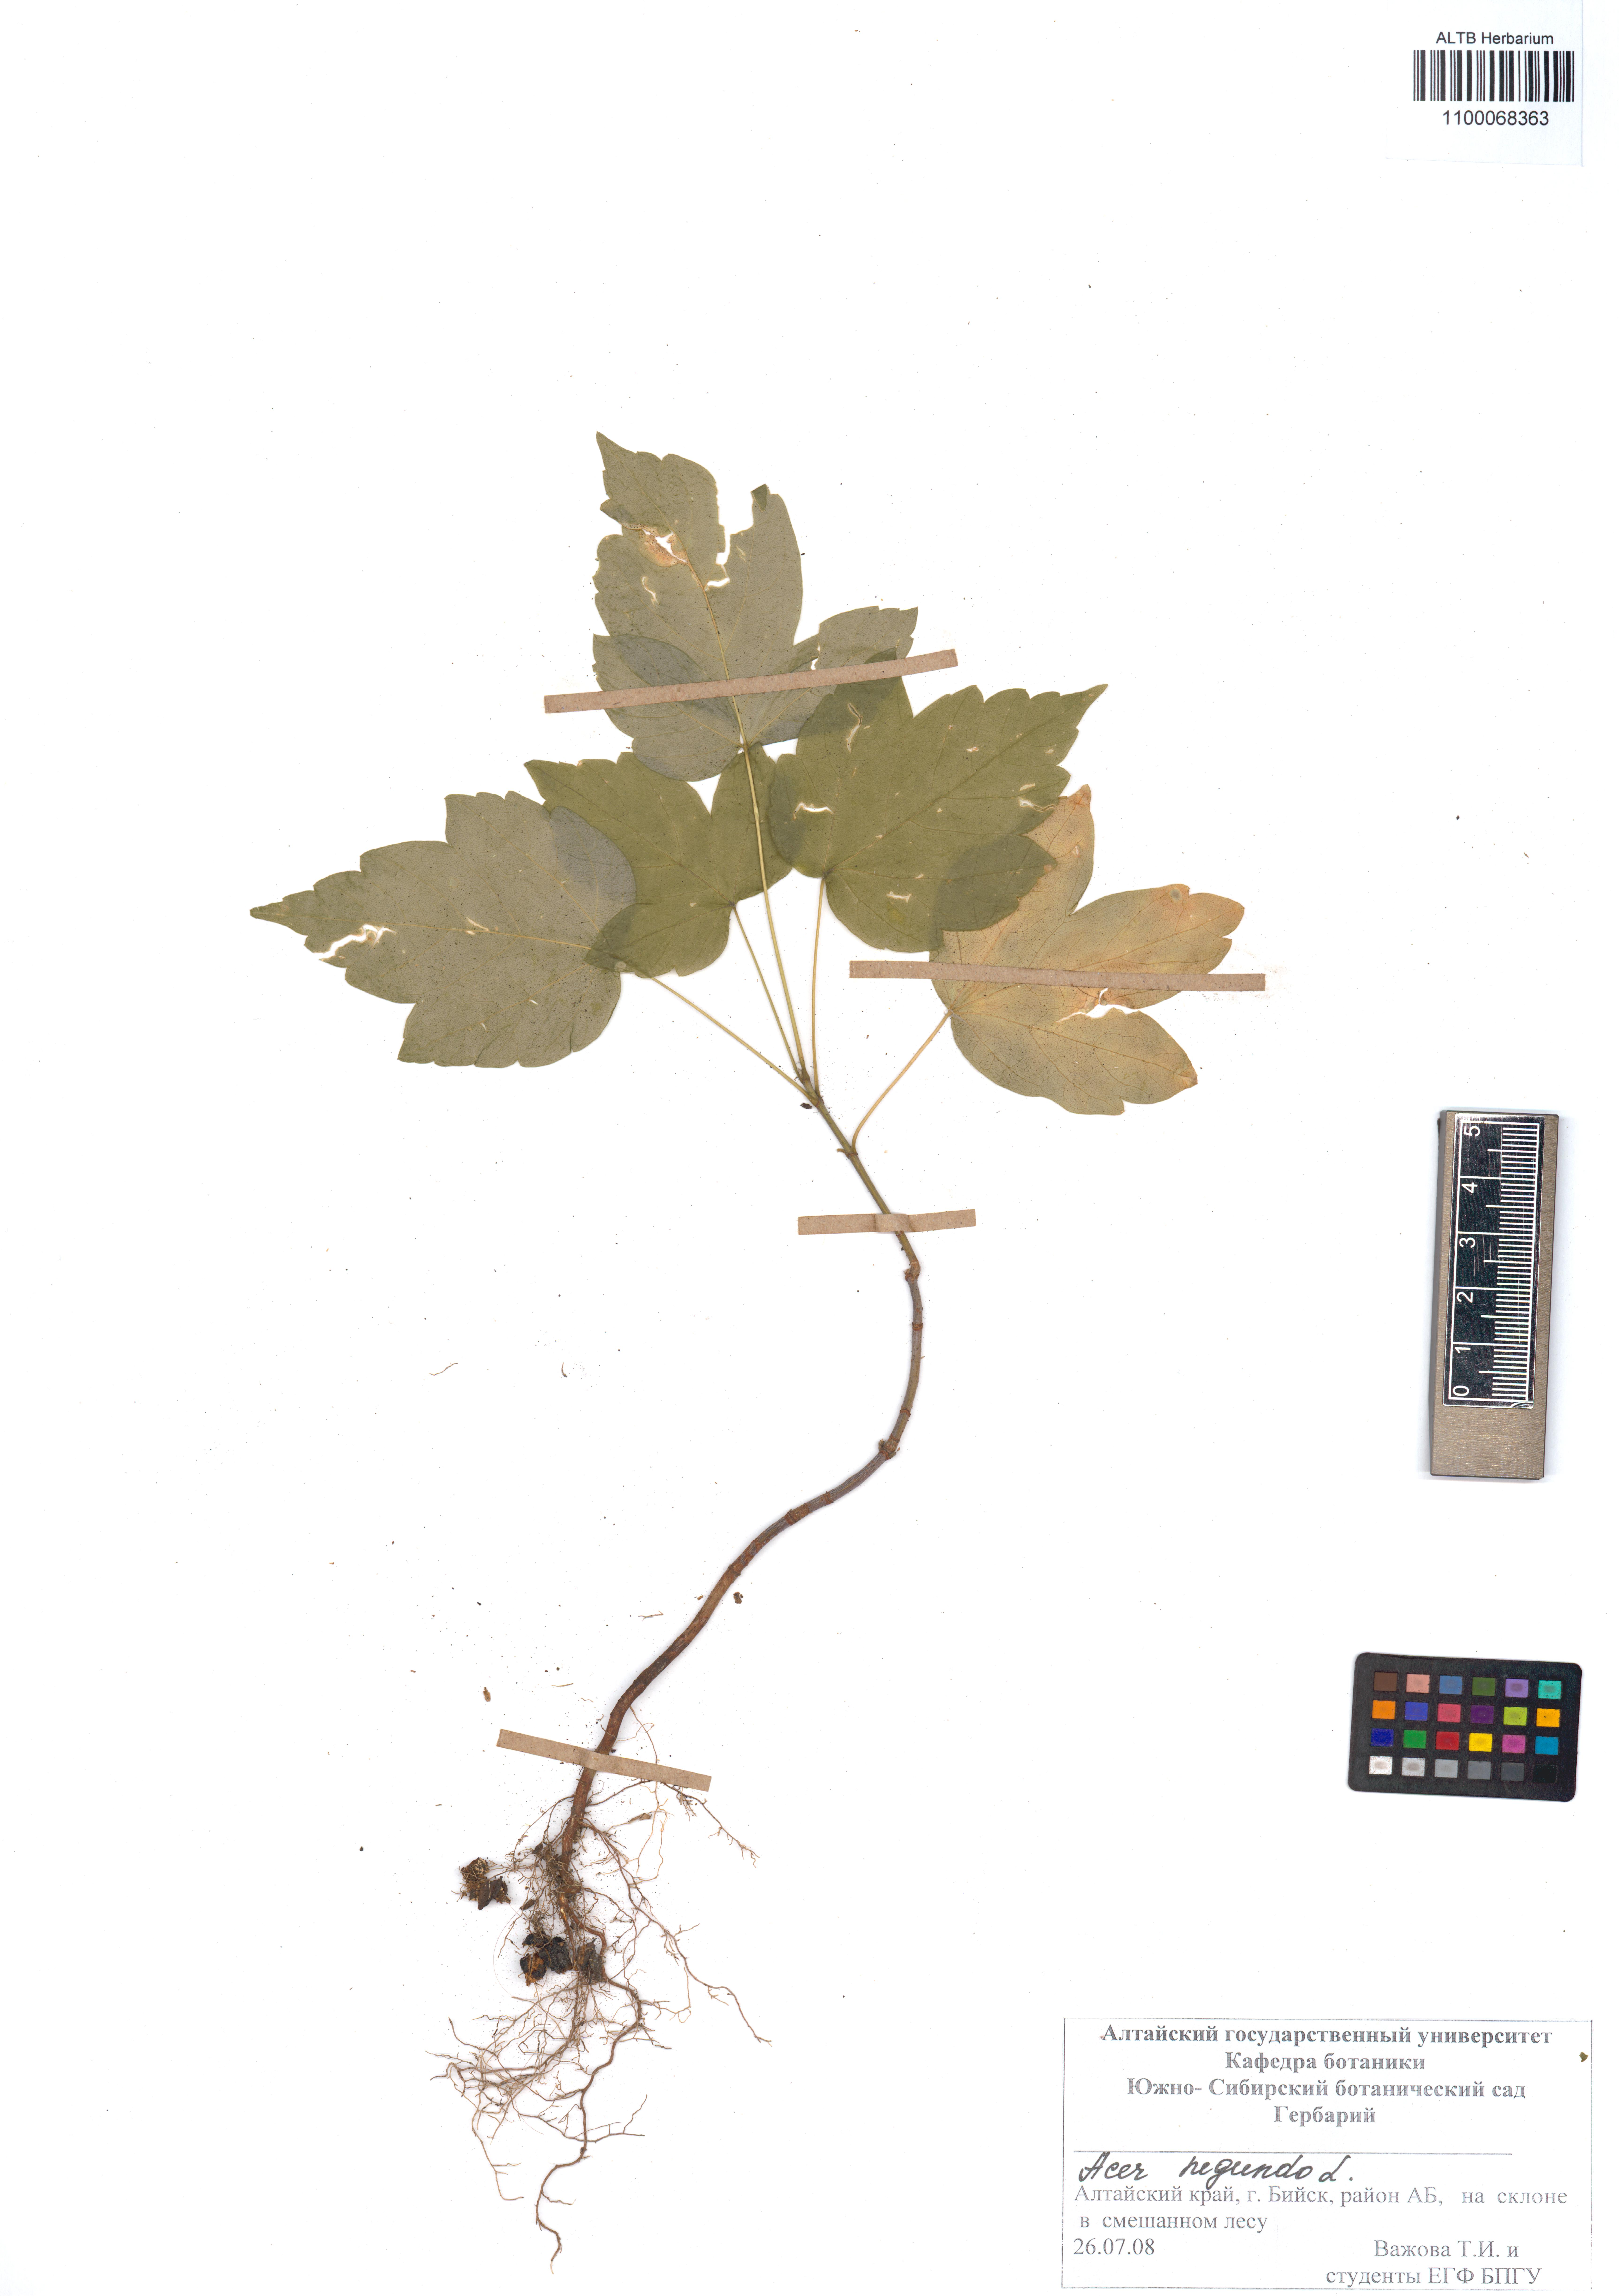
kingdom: Plantae
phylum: Tracheophyta
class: Magnoliopsida
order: Sapindales
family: Sapindaceae
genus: Acer
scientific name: Acer negundo
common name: Ashleaf maple
